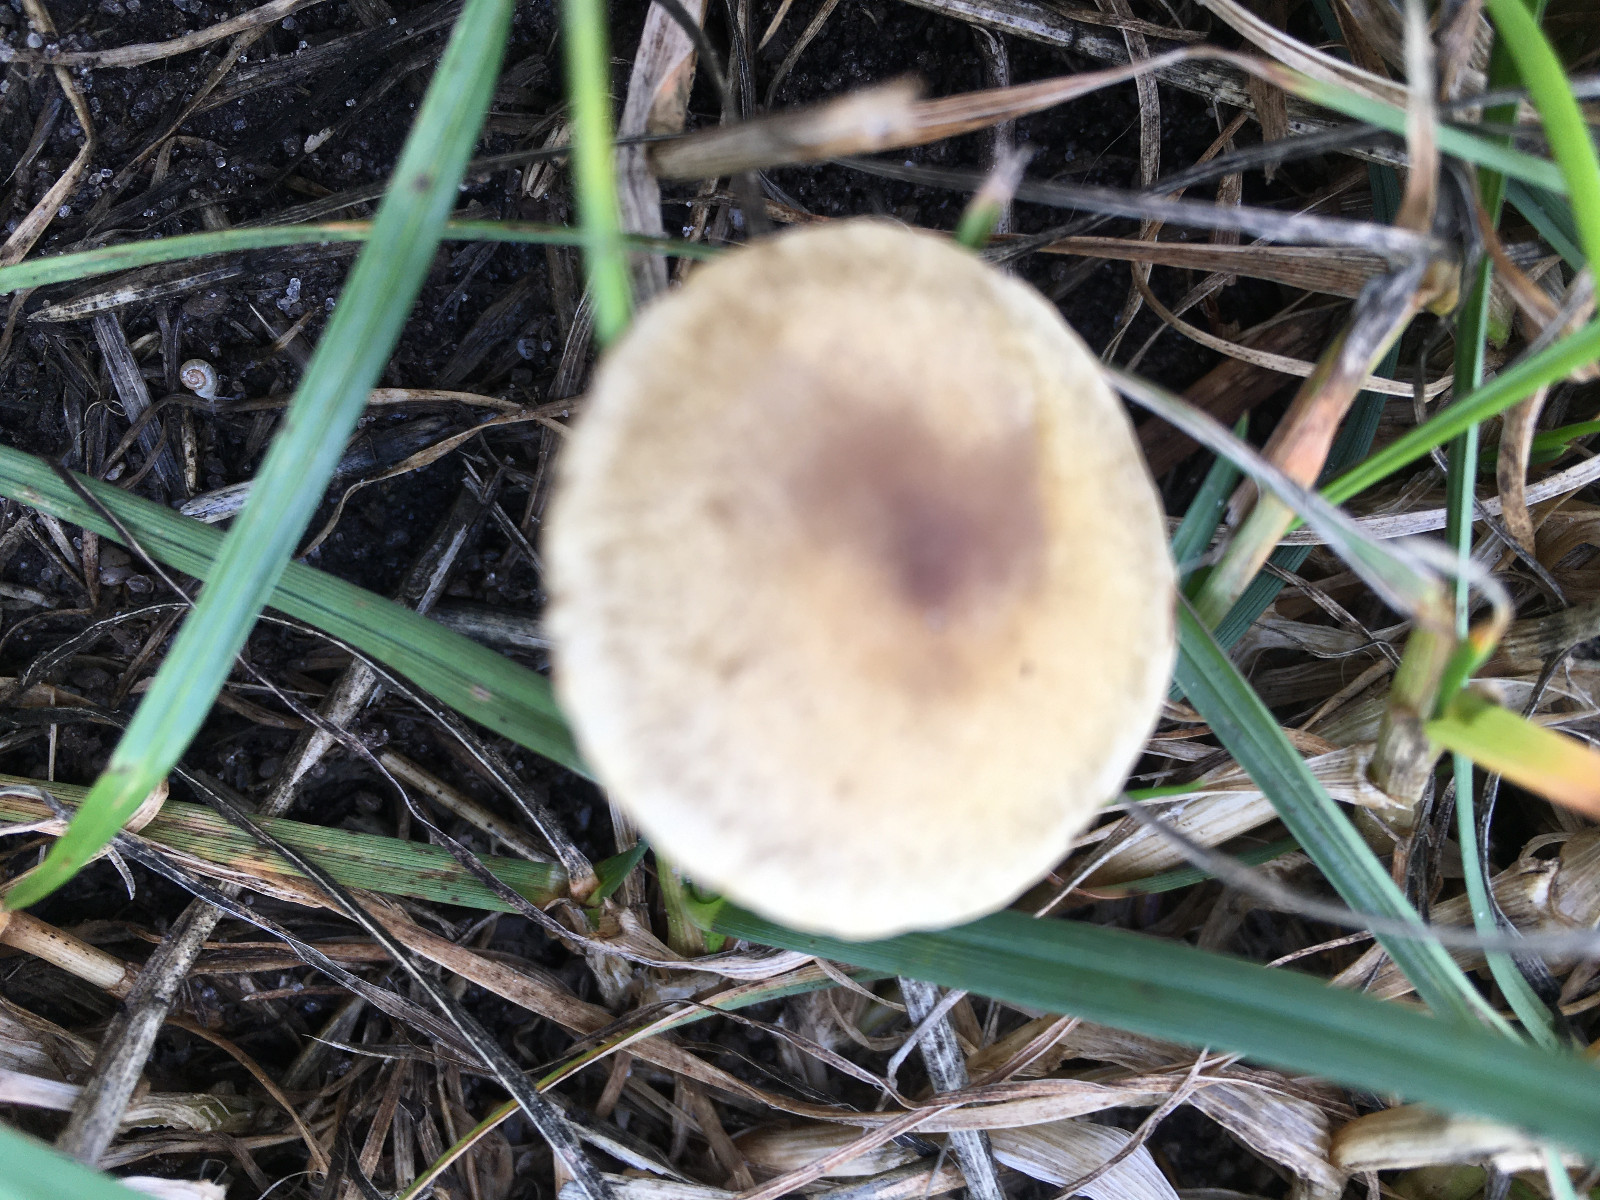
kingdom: Fungi
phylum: Basidiomycota
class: Agaricomycetes
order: Agaricales
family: Strophariaceae
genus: Agrocybe
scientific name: Agrocybe pediades
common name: almindelig agerhat
